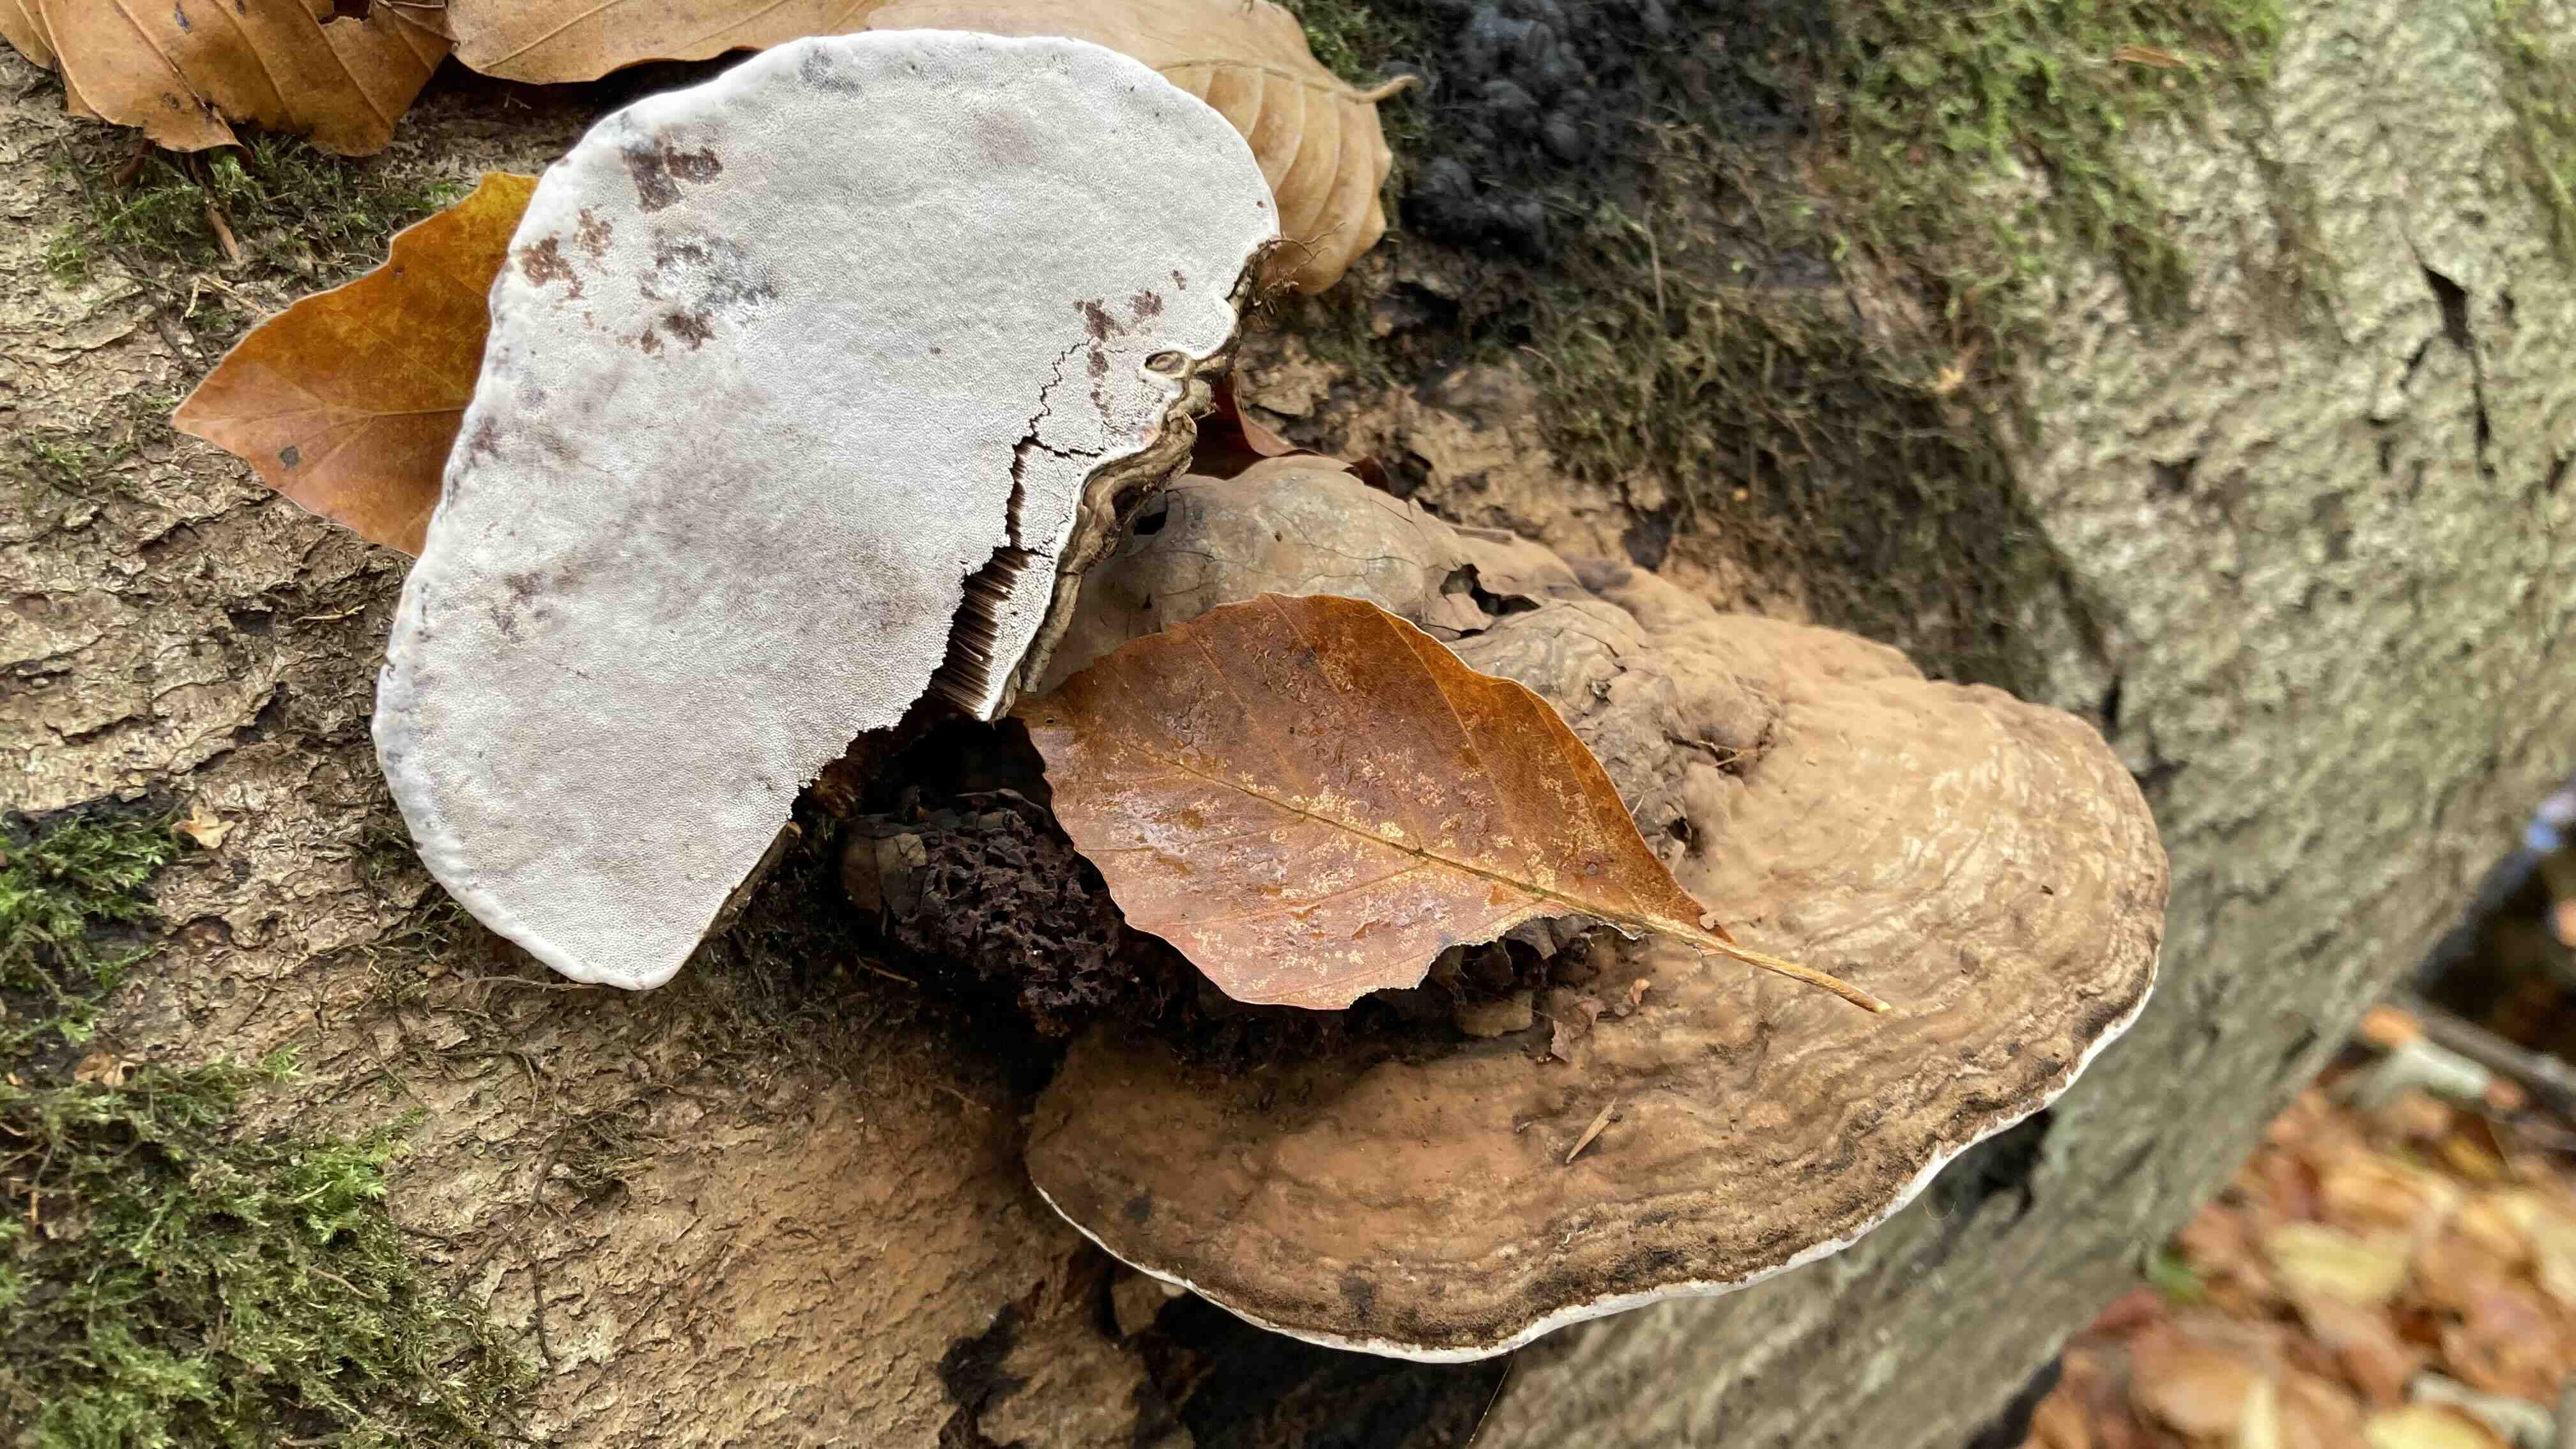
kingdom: Fungi
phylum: Basidiomycota
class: Agaricomycetes
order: Polyporales
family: Polyporaceae
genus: Ganoderma
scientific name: Ganoderma applanatum
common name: flad lakporesvamp
